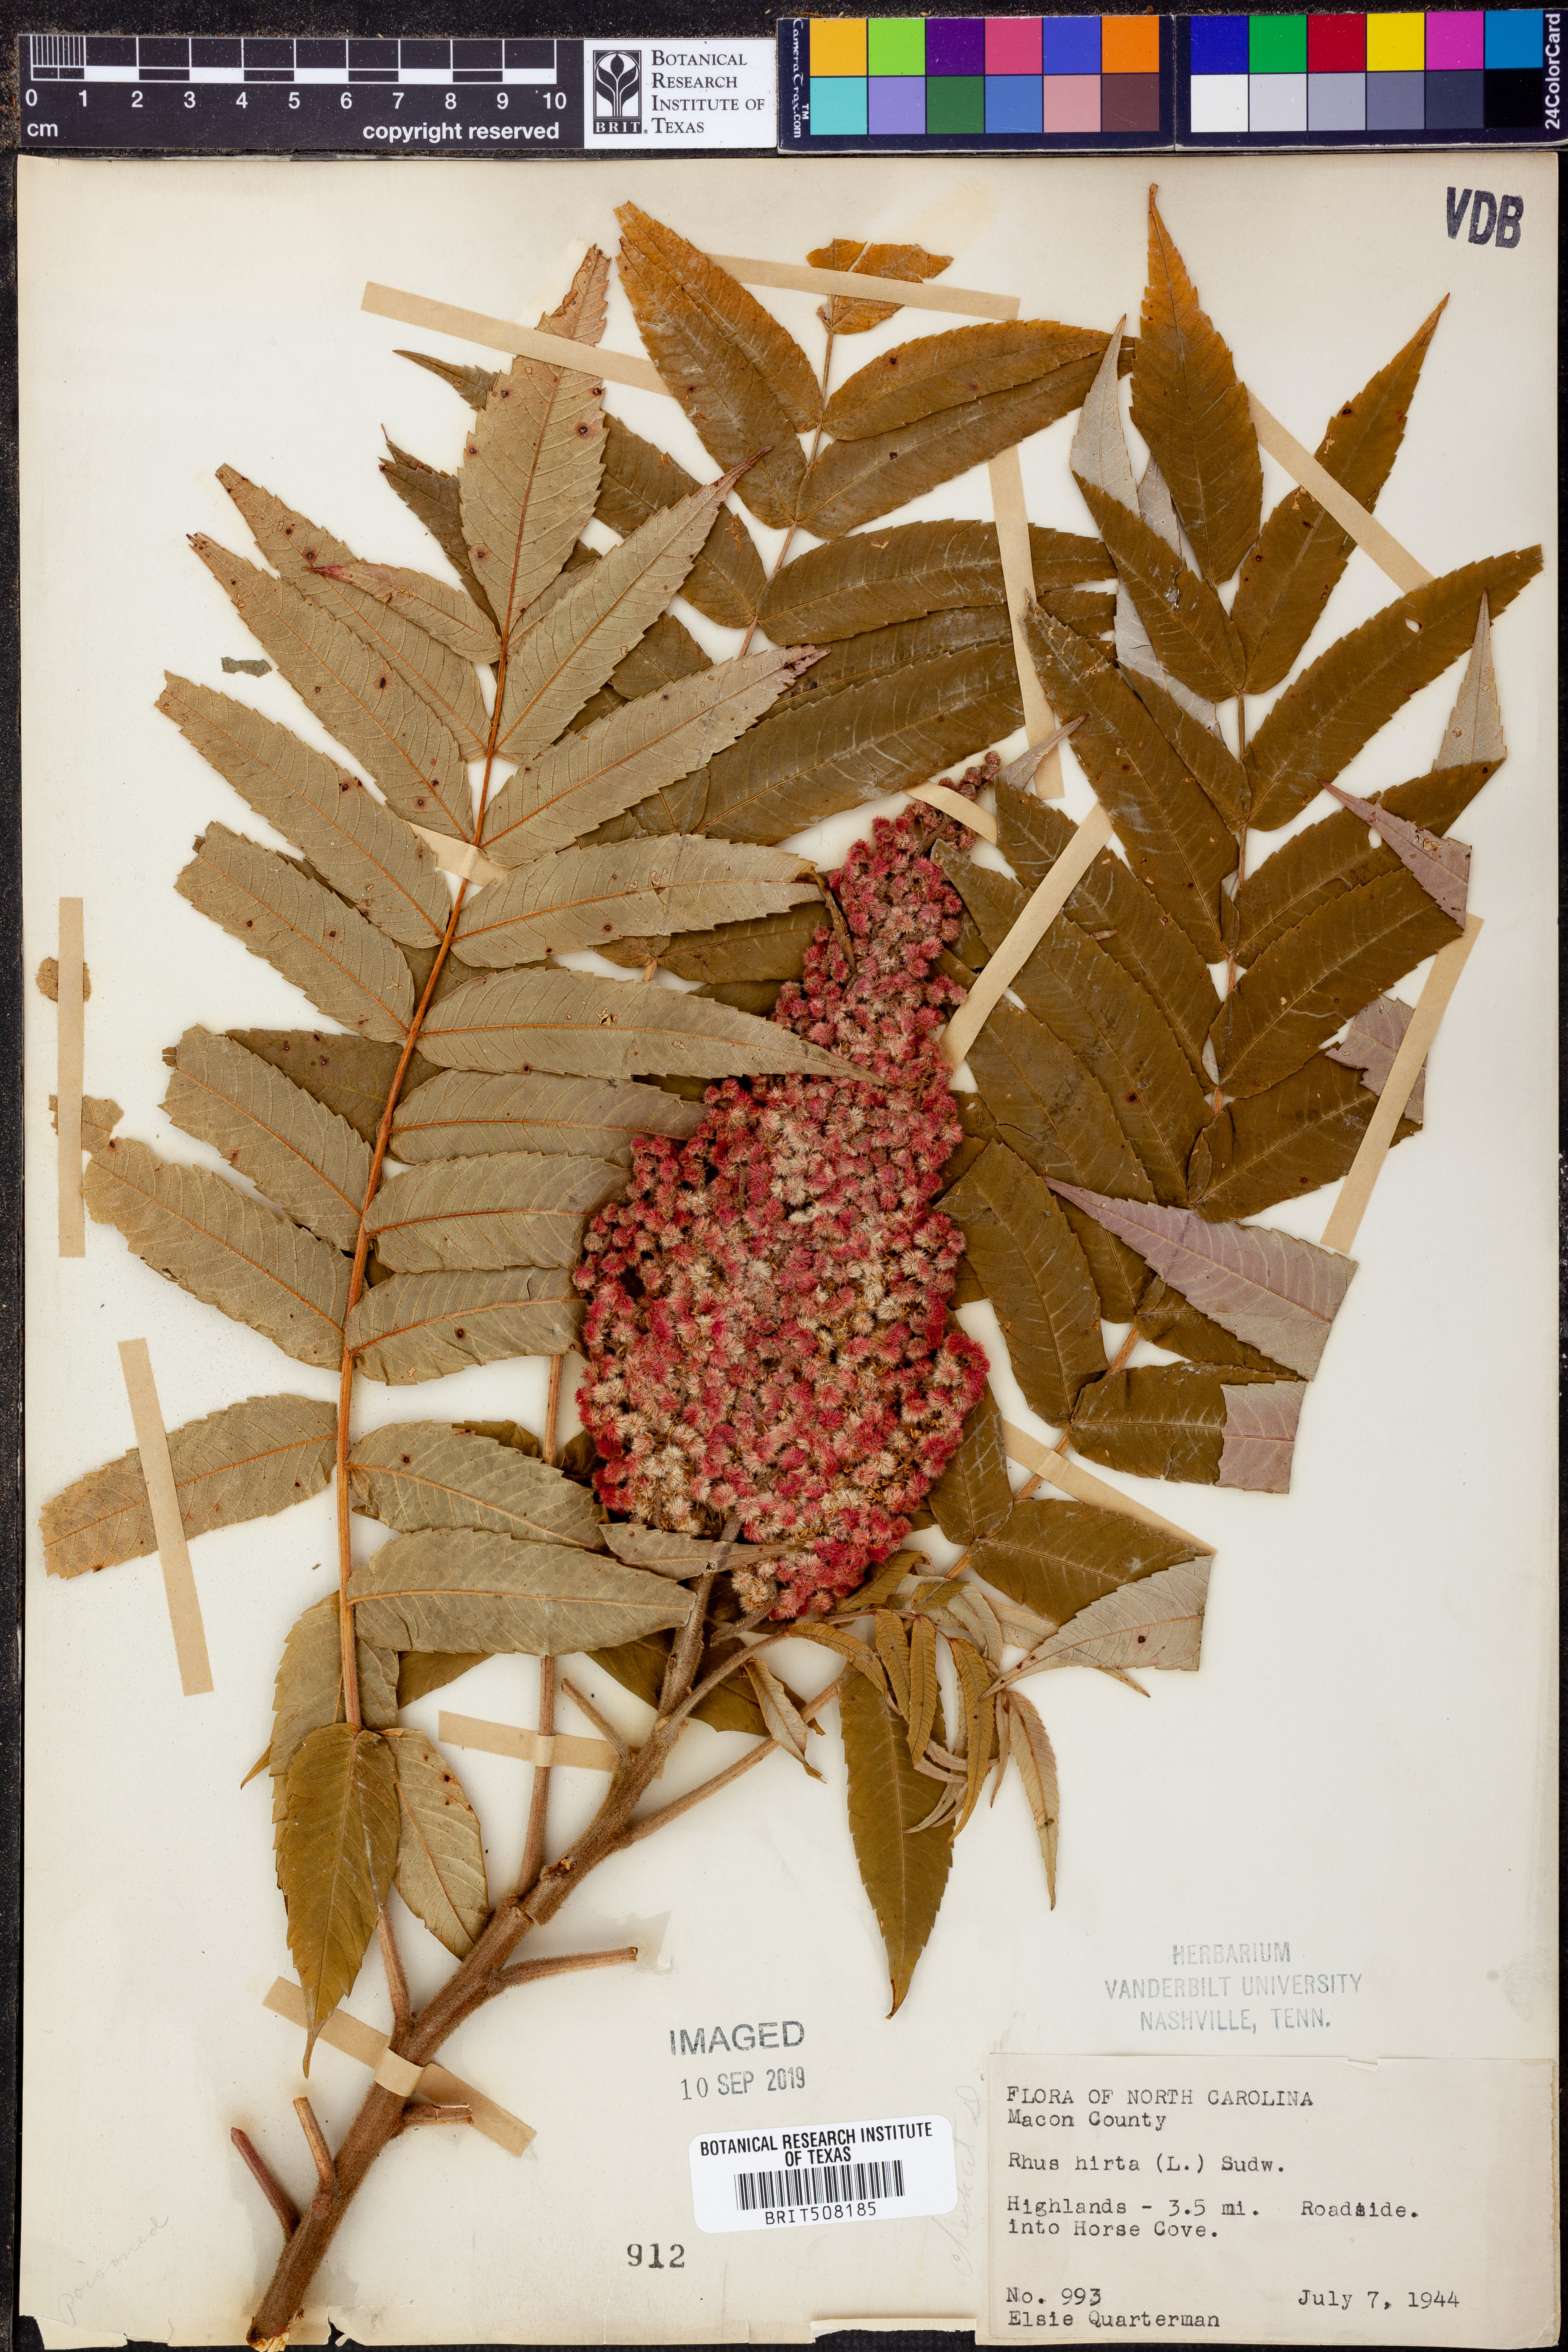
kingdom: Plantae
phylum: Tracheophyta
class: Magnoliopsida
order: Sapindales
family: Anacardiaceae
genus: Rhus
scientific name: Rhus typhina
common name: Staghorn sumac
